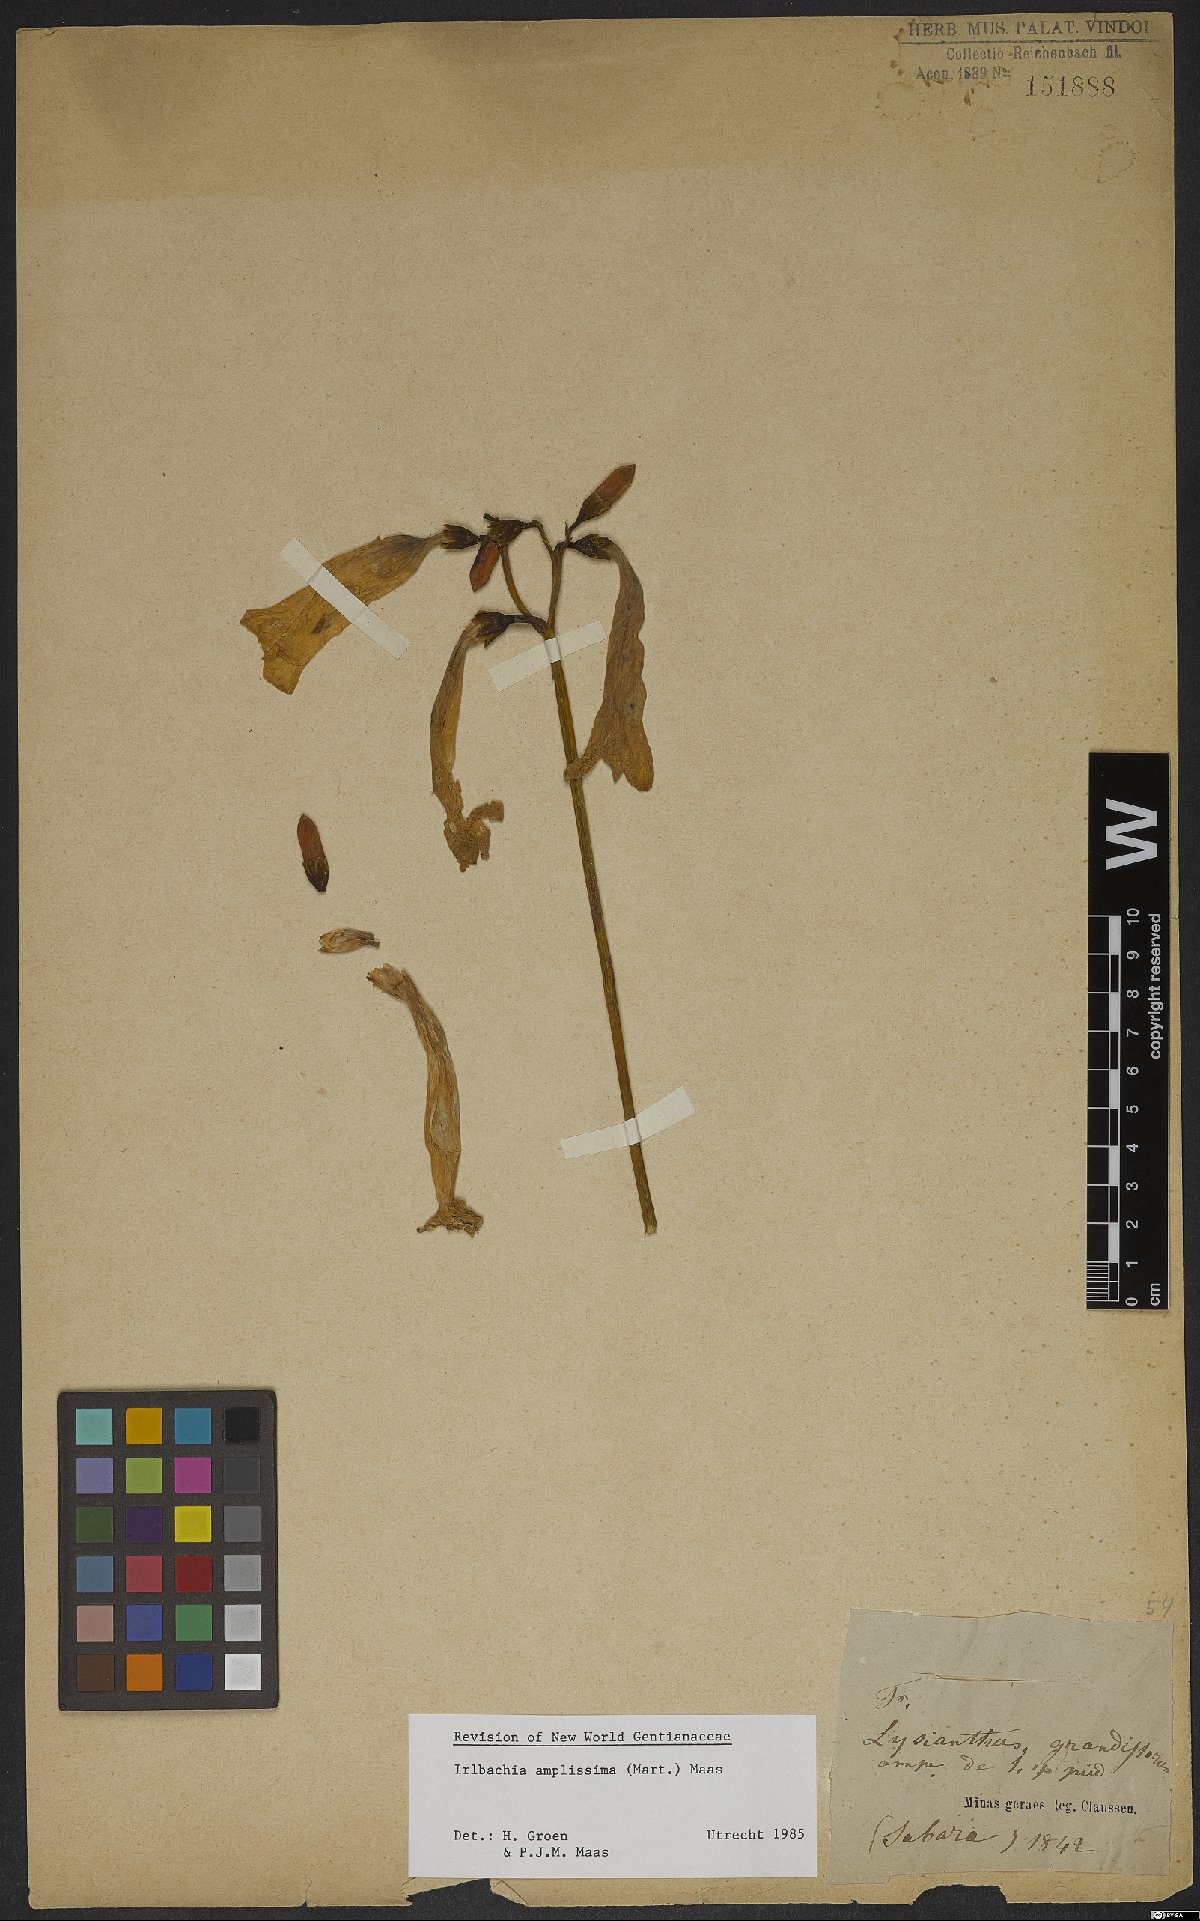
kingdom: Plantae
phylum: Tracheophyta
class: Magnoliopsida
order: Gentianales
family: Gentianaceae
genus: Calolisianthus
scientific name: Calolisianthus amplissimus
